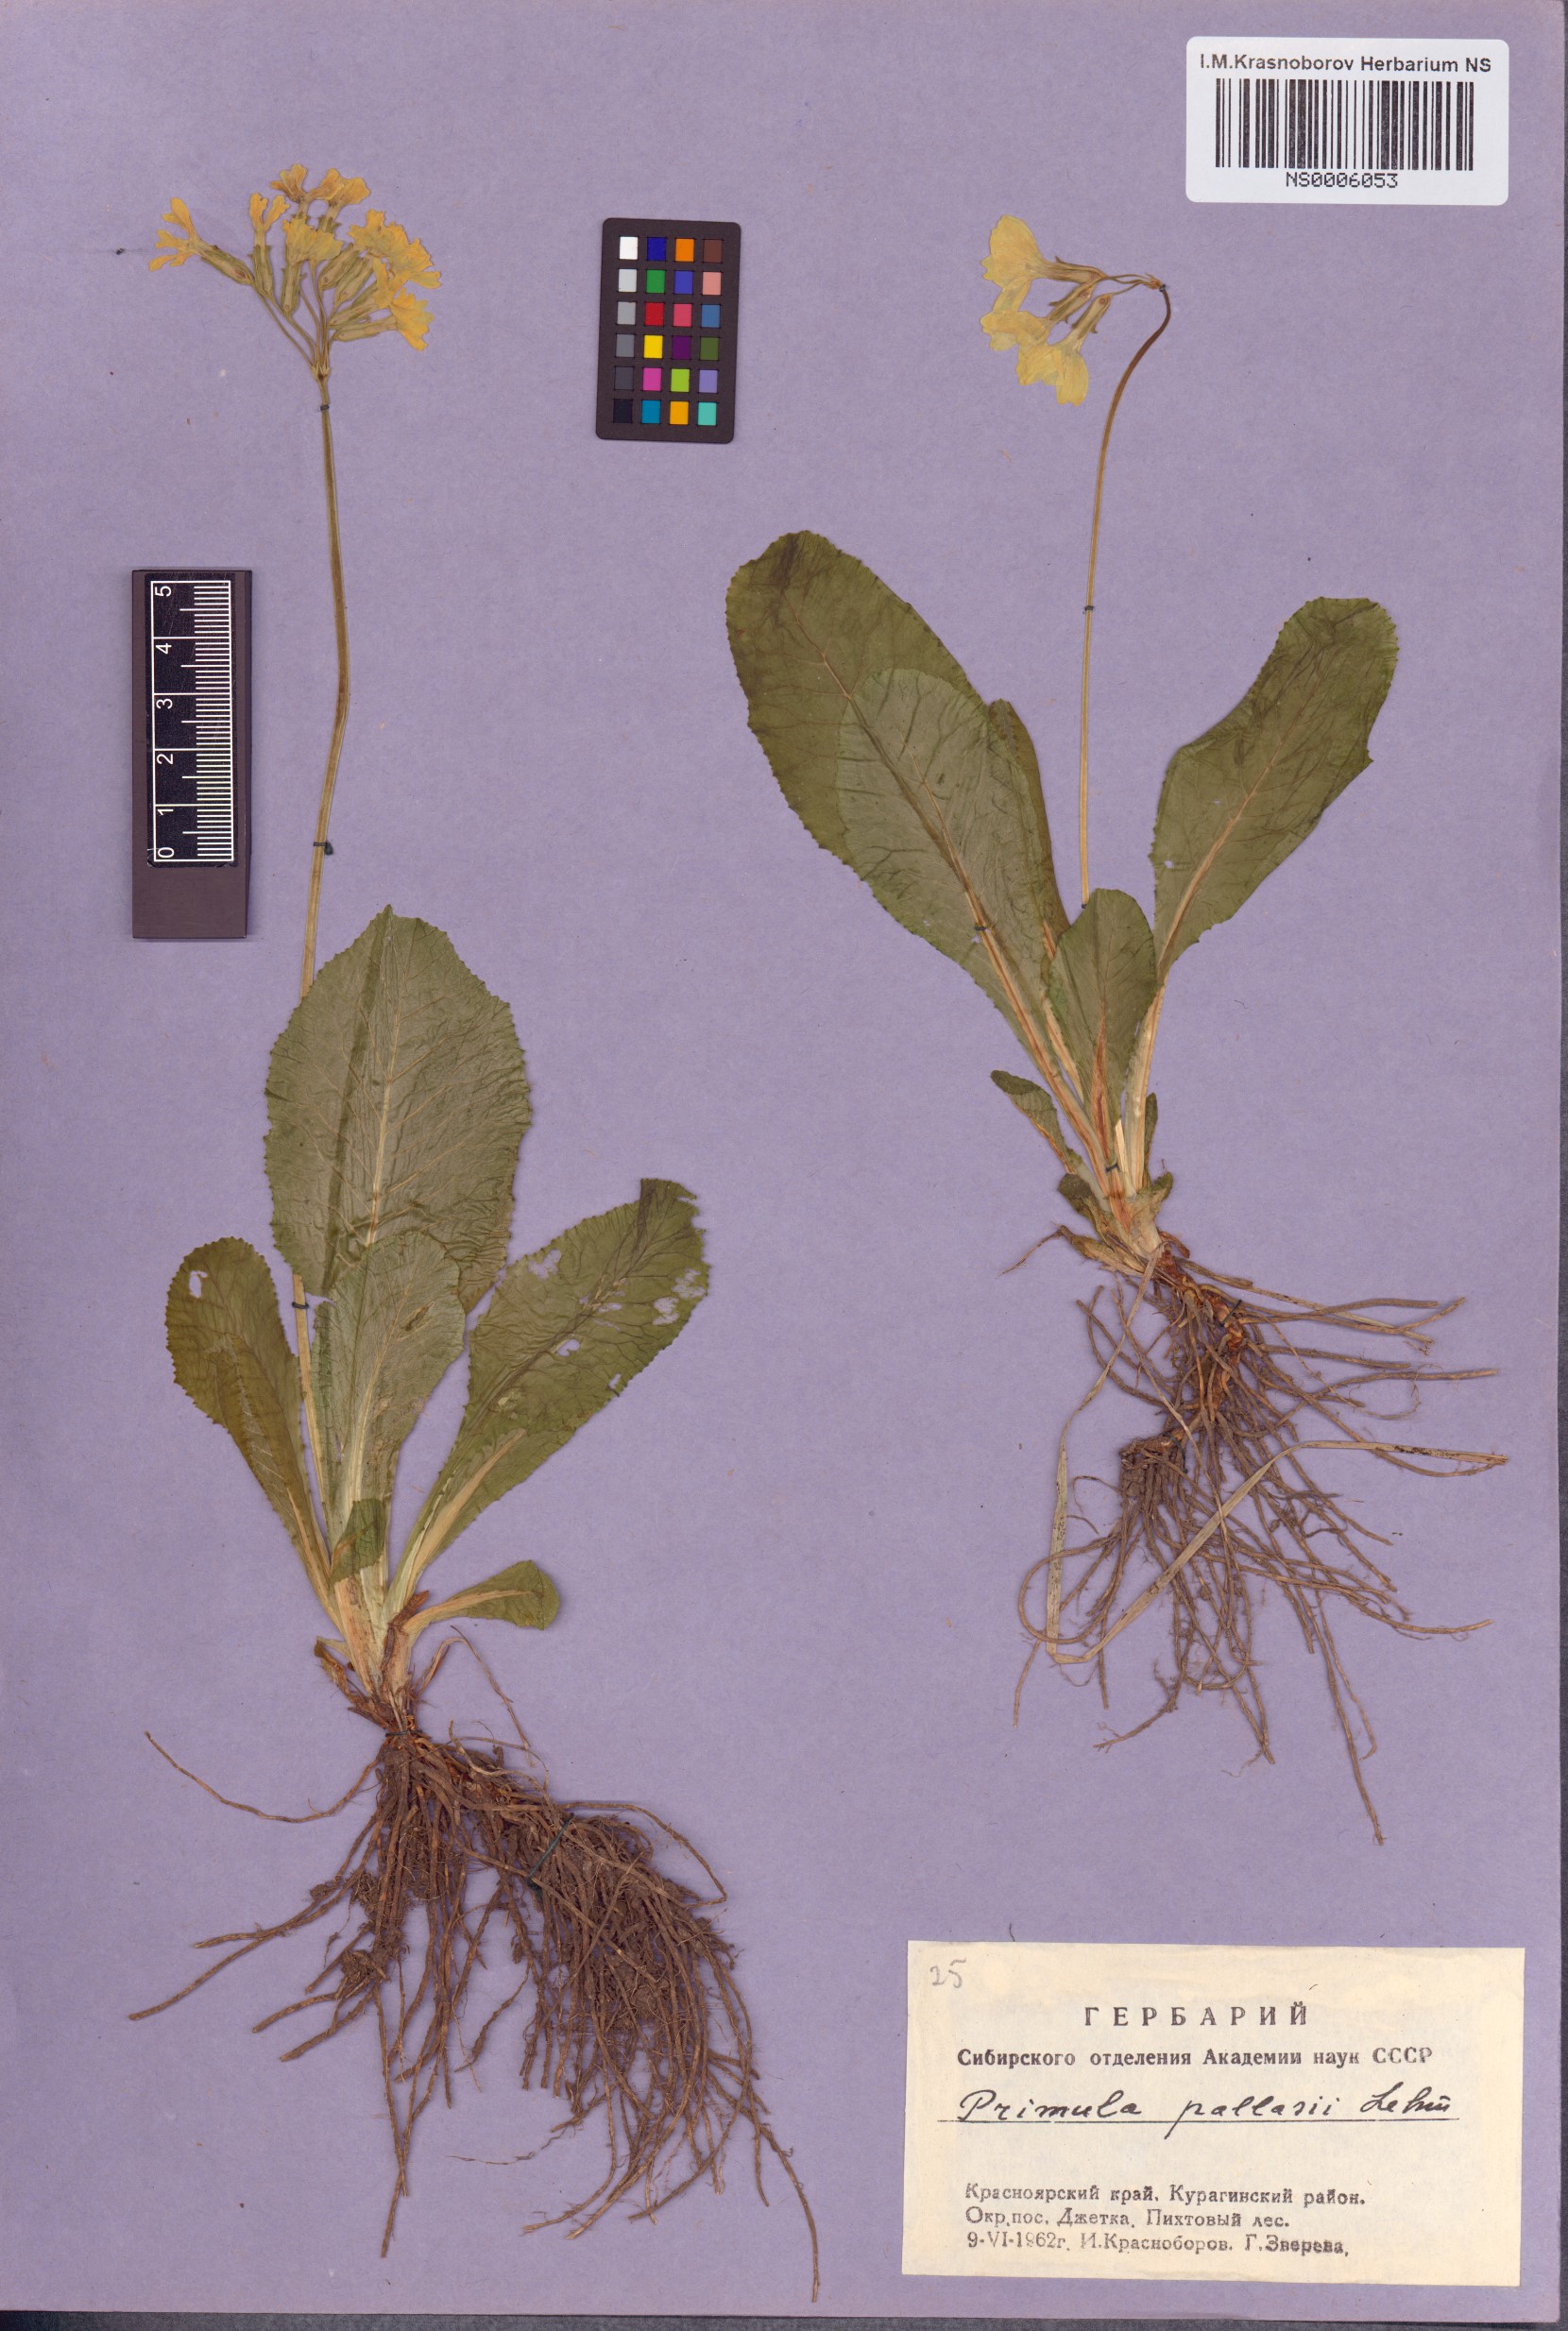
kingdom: Plantae
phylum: Tracheophyta
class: Magnoliopsida
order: Ericales
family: Primulaceae
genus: Primula
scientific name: Primula elatior
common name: Oxlip
